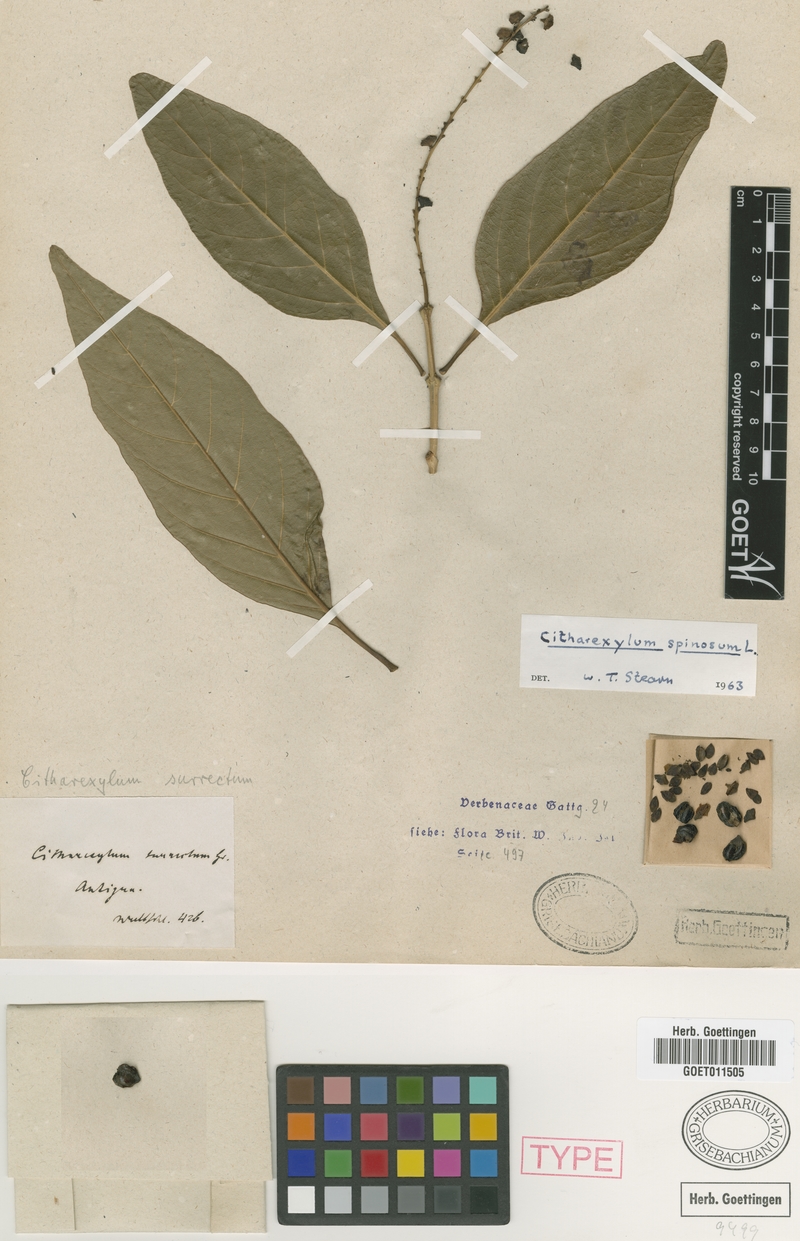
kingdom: Plantae
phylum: Tracheophyta
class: Magnoliopsida
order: Lamiales
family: Verbenaceae
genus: Citharexylum
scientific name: Citharexylum spinosum
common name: Fiddlewood
